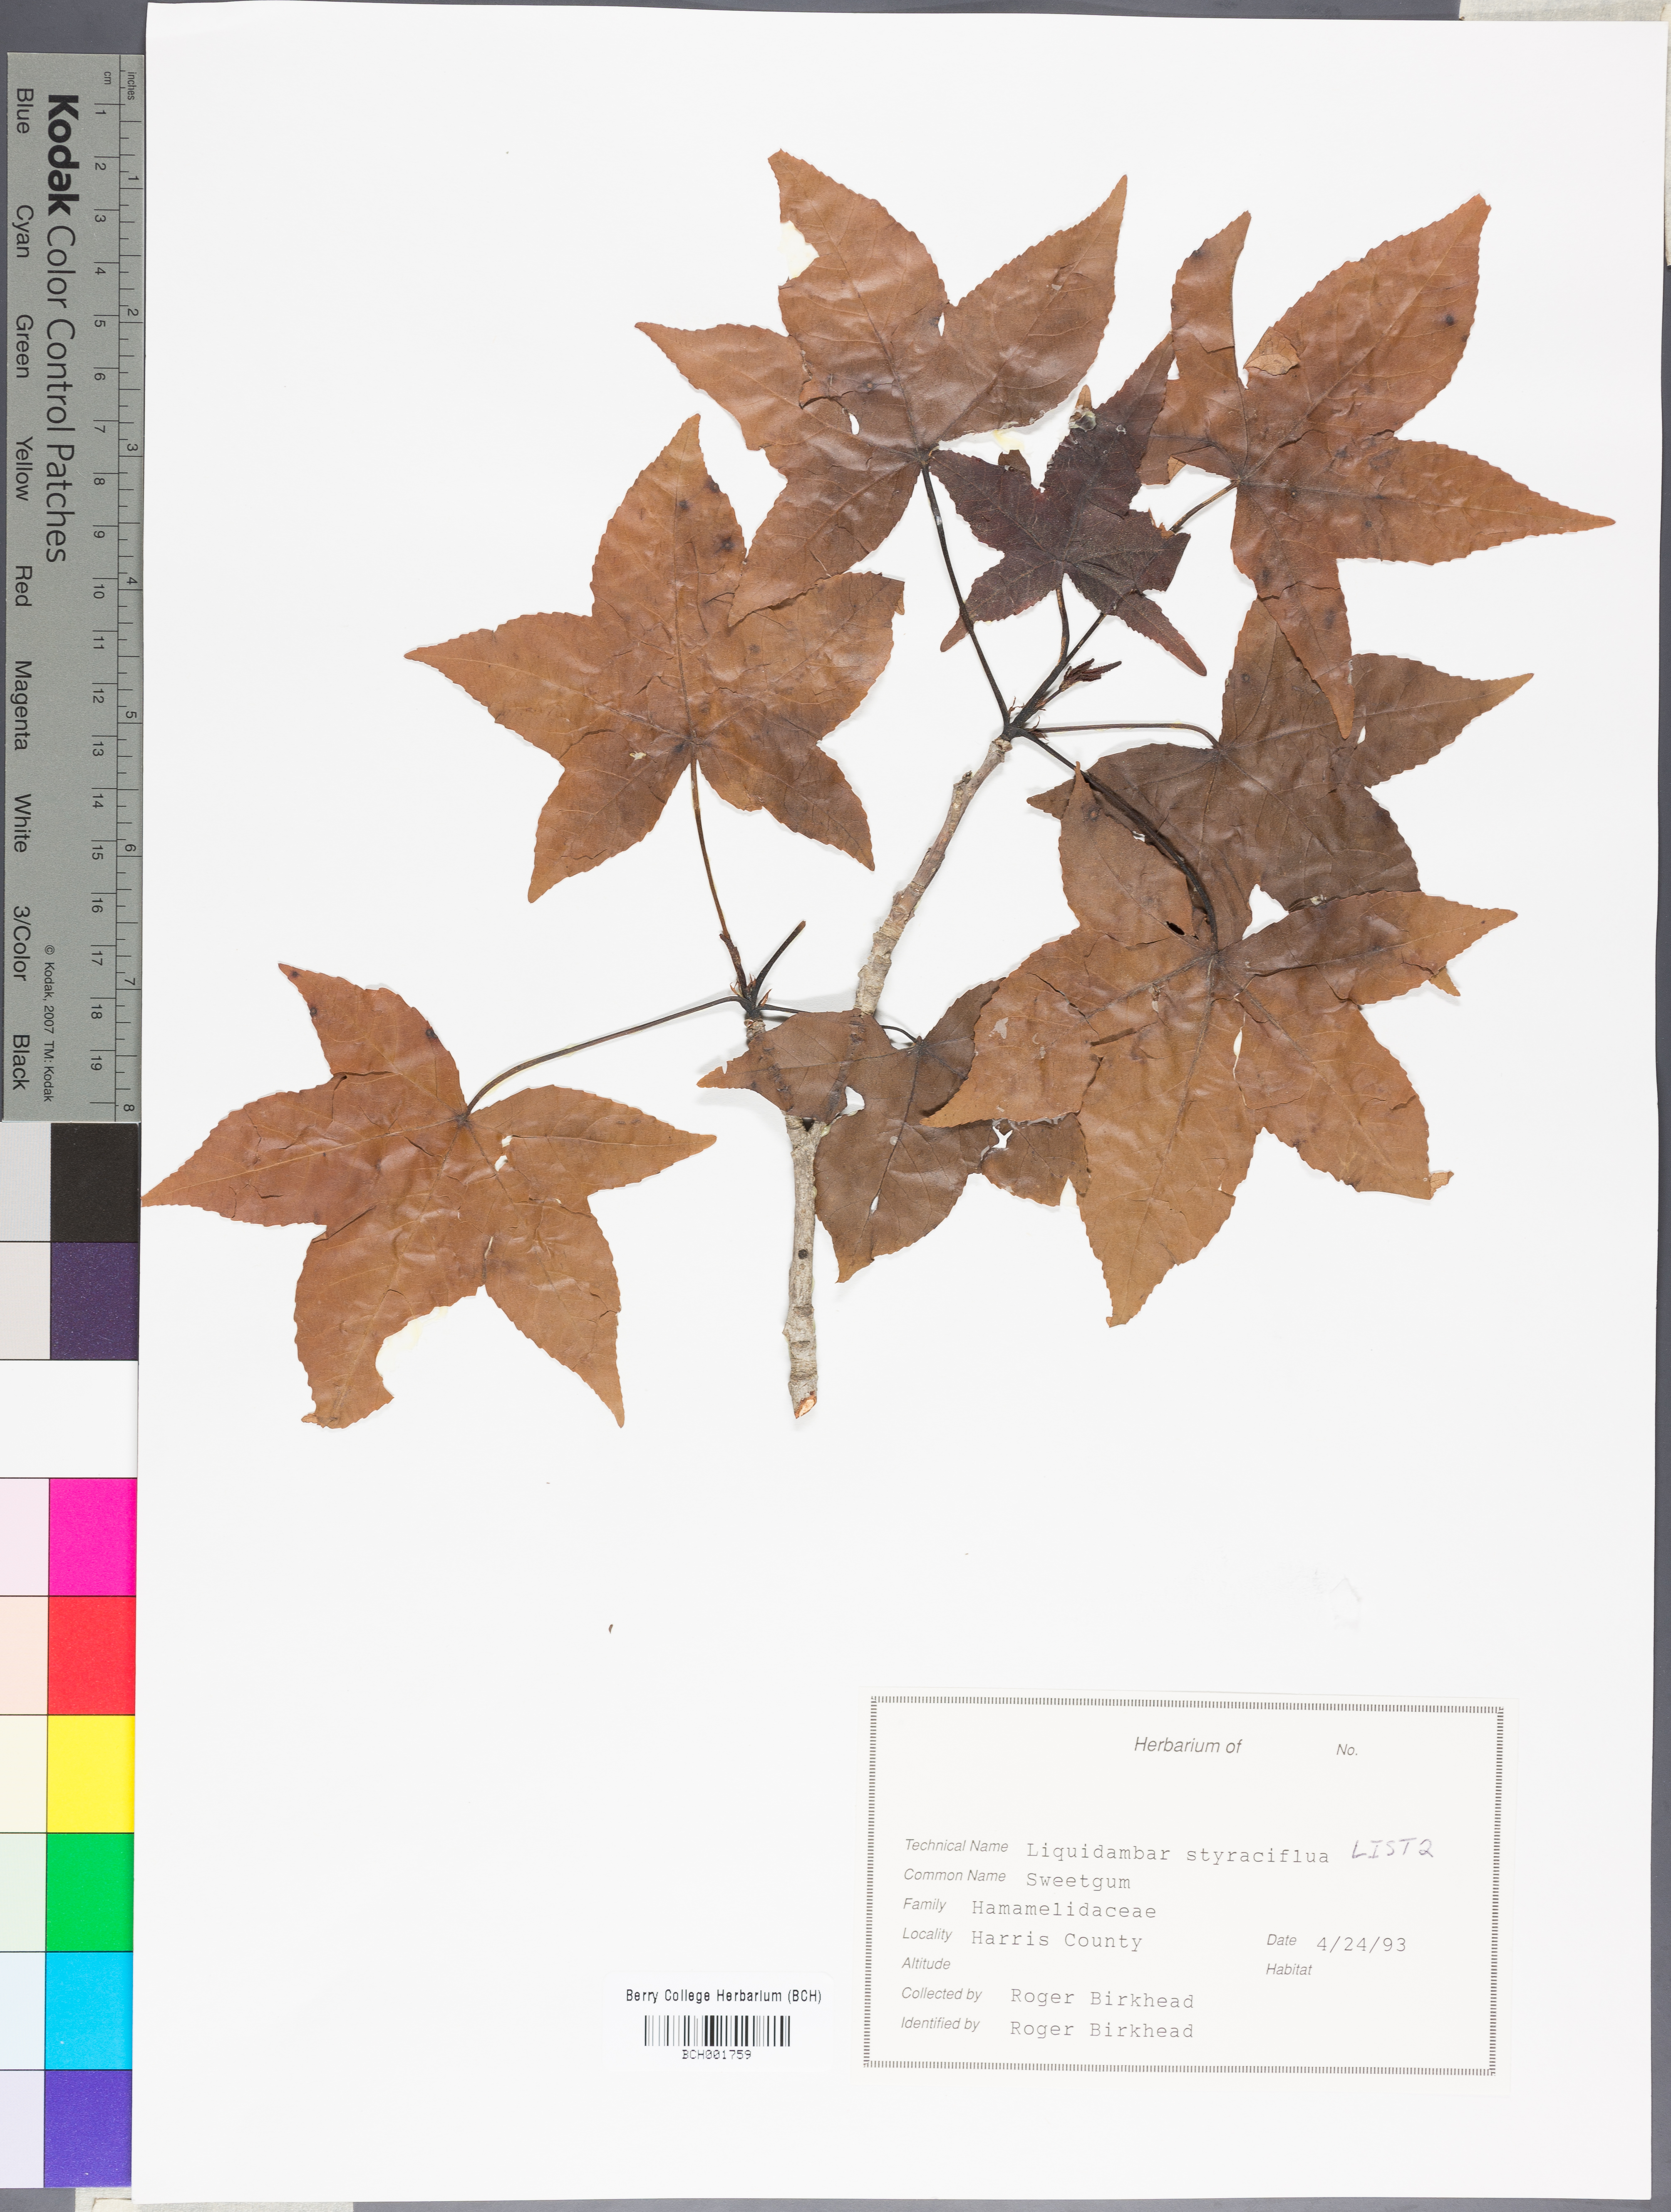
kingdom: Plantae
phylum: Tracheophyta
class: Magnoliopsida
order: Saxifragales
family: Altingiaceae
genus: Liquidambar
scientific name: Liquidambar styraciflua
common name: Sweet gum
